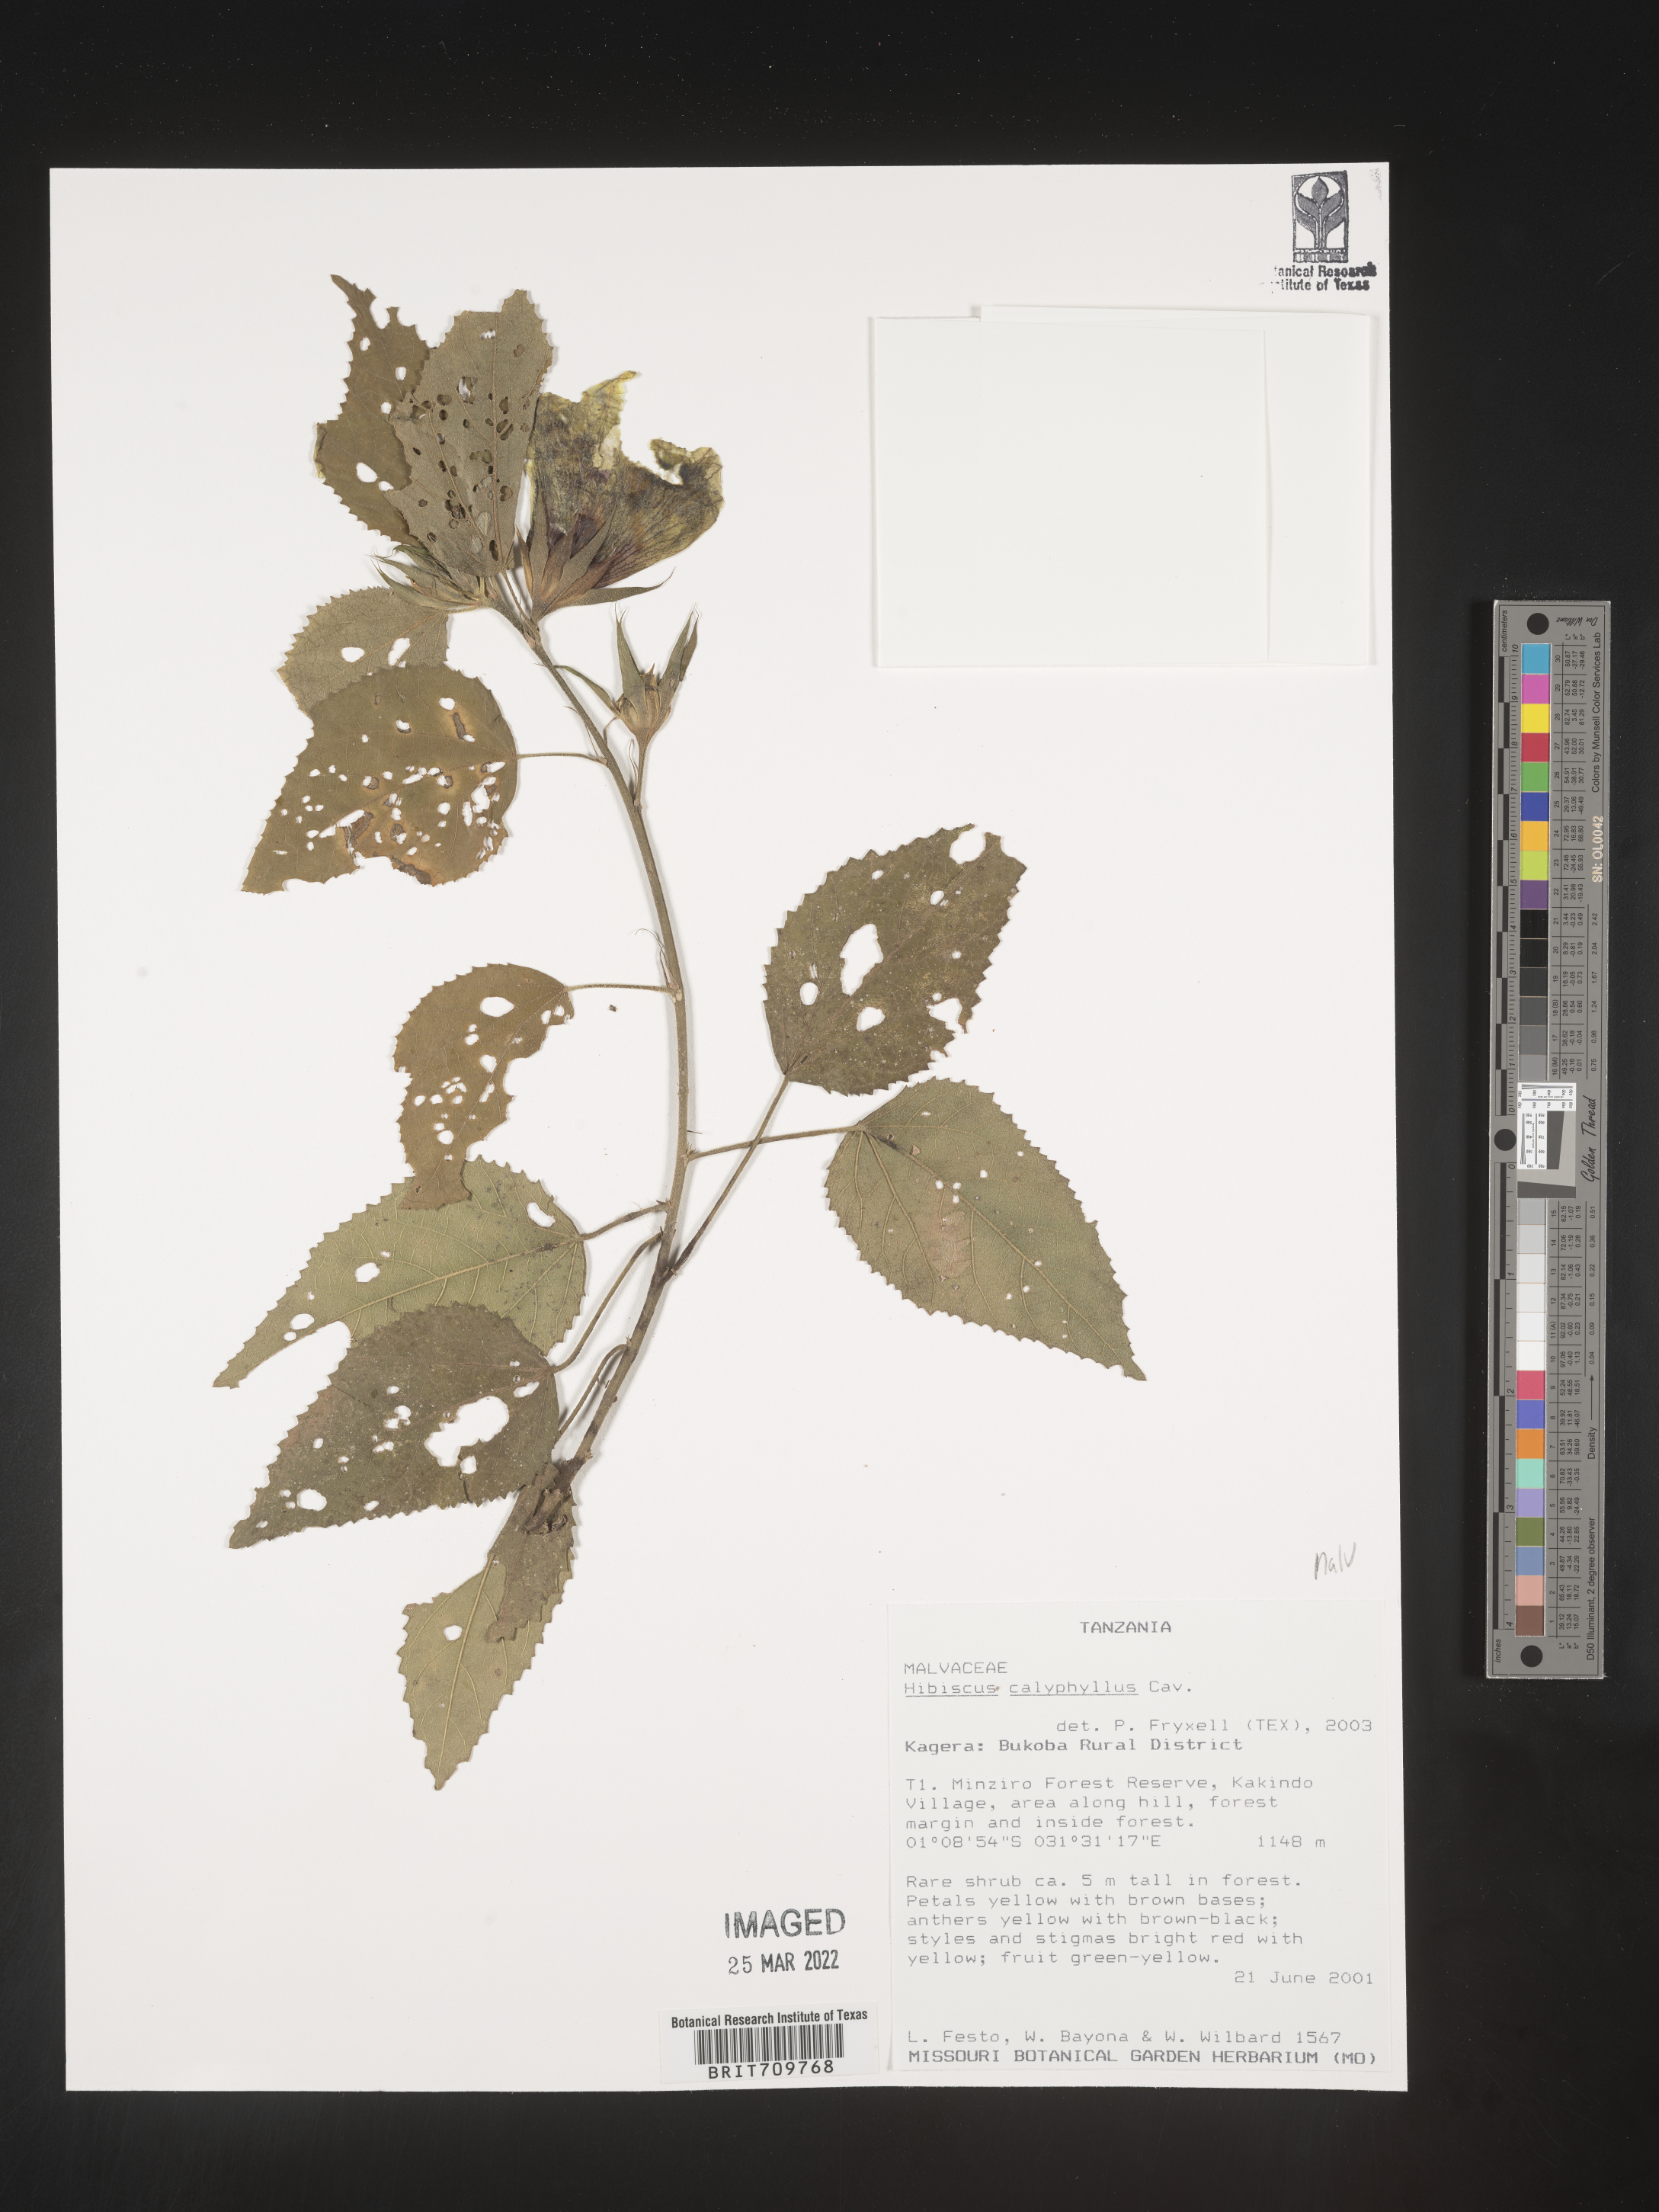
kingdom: Plantae
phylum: Tracheophyta
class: Magnoliopsida
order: Malvales
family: Malvaceae
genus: Hibiscus
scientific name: Hibiscus
